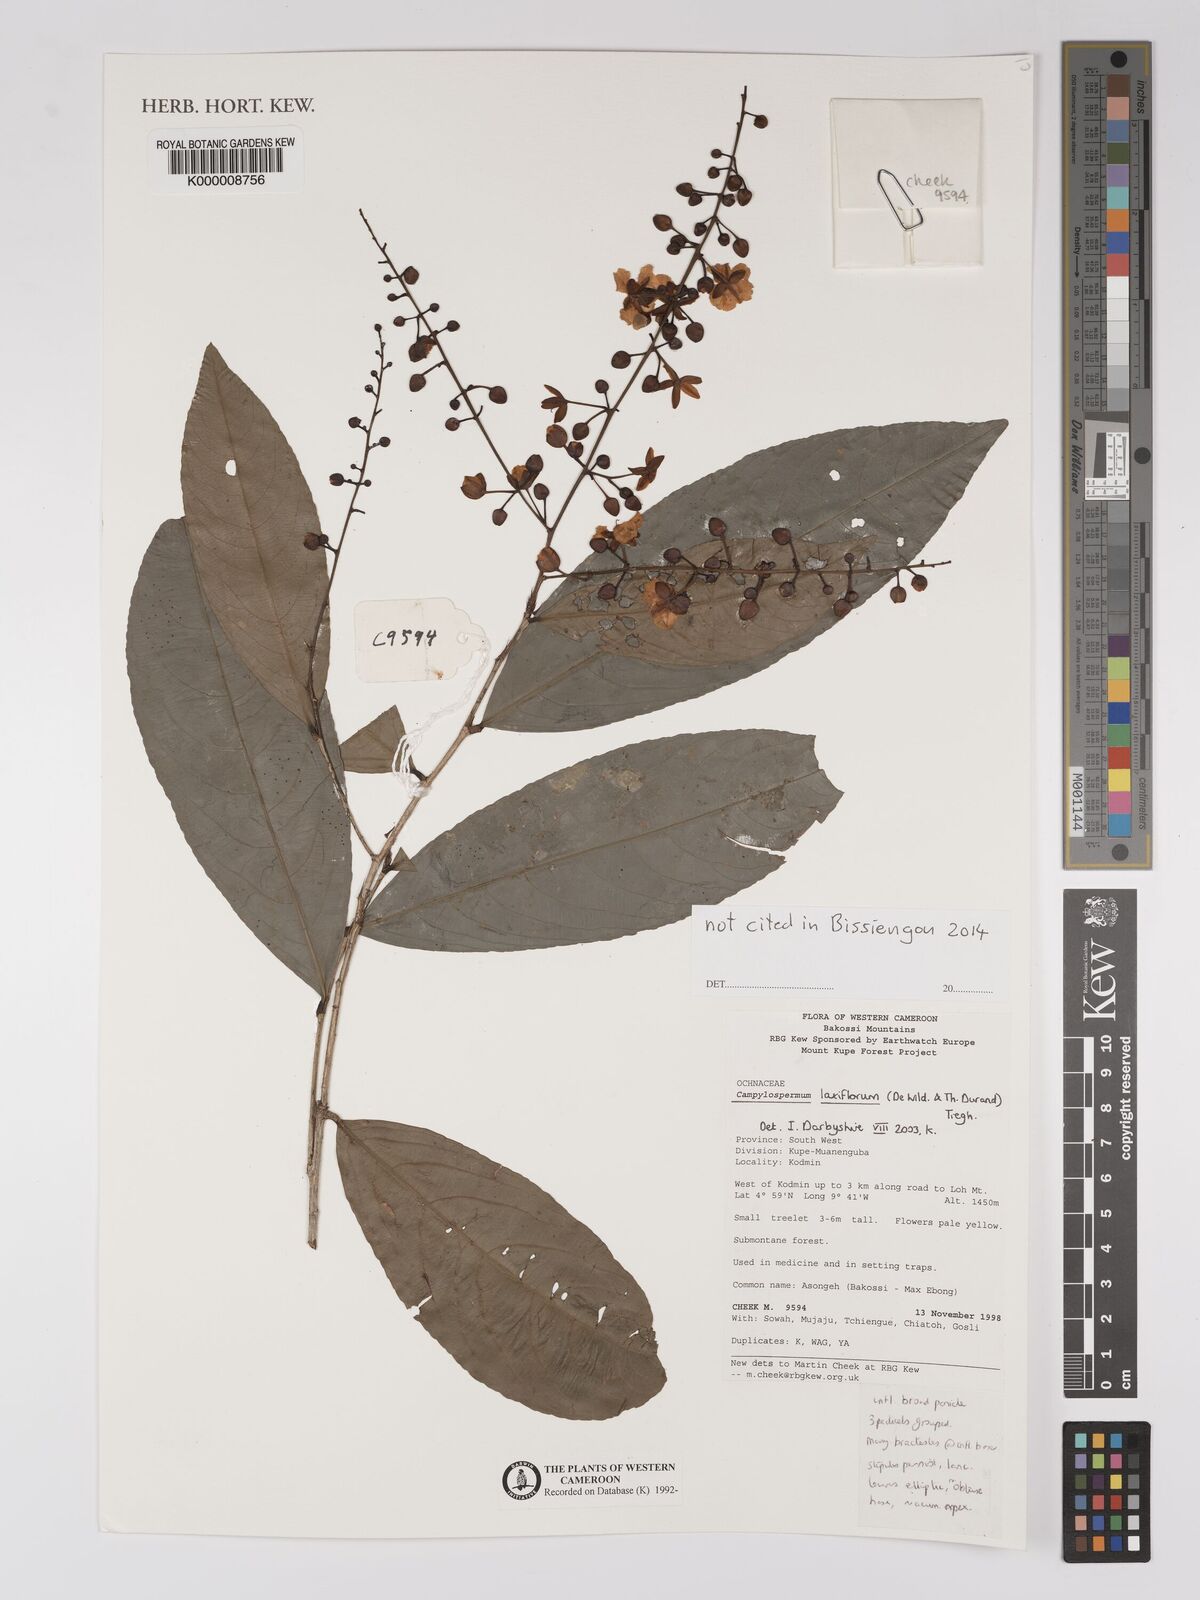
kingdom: Plantae
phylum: Tracheophyta
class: Magnoliopsida
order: Malpighiales
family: Ochnaceae
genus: Campylospermum
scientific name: Campylospermum laxiflorum
